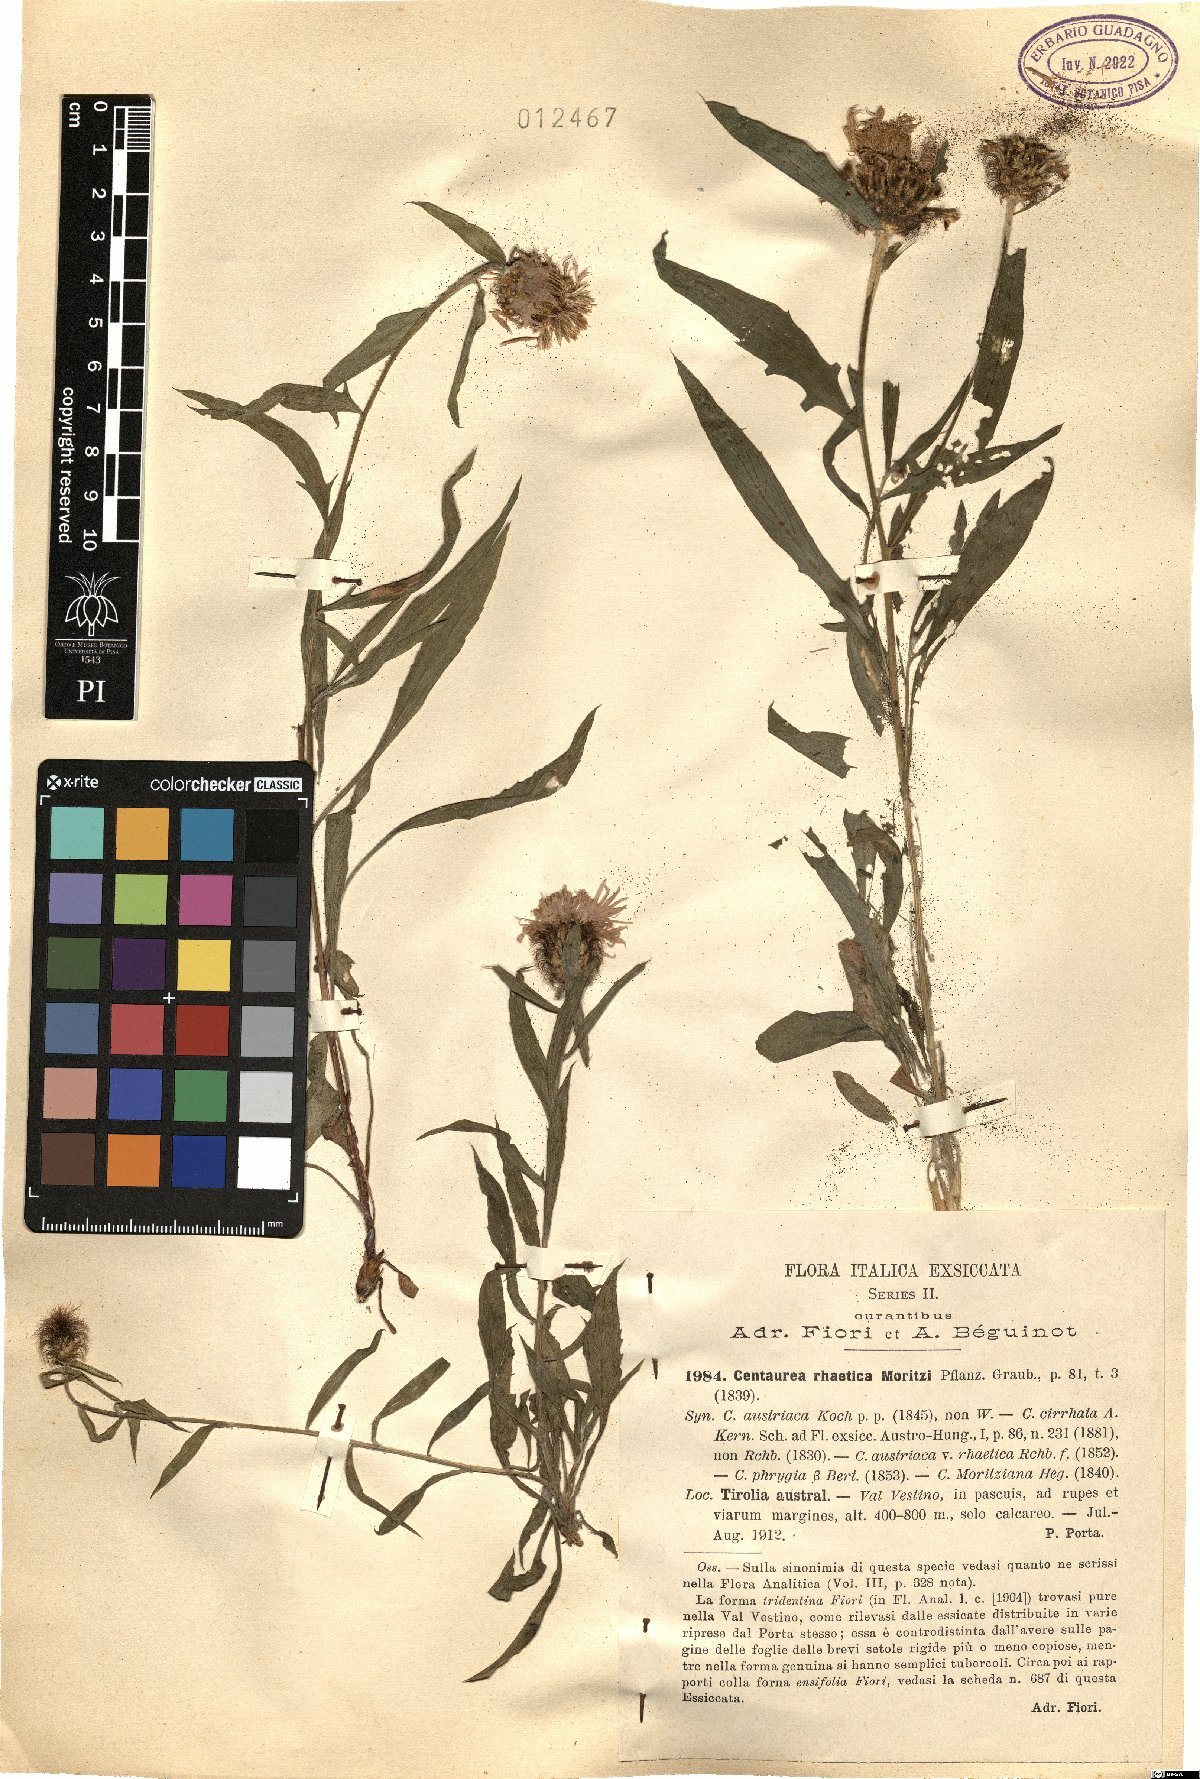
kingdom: Plantae
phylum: Tracheophyta
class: Magnoliopsida
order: Asterales
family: Asteraceae
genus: Centaurea
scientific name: Centaurea rhaetica
